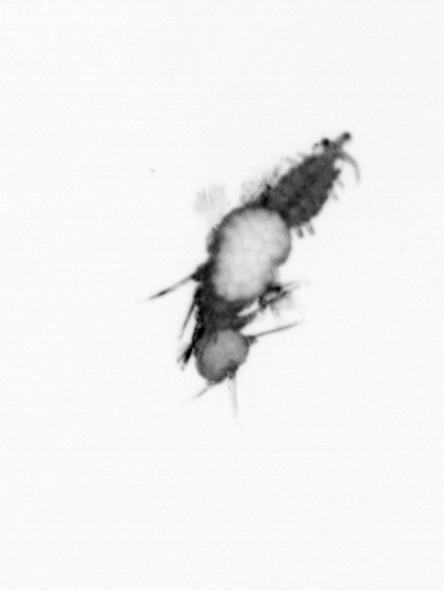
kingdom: Animalia
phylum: Annelida
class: Polychaeta
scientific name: Polychaeta
